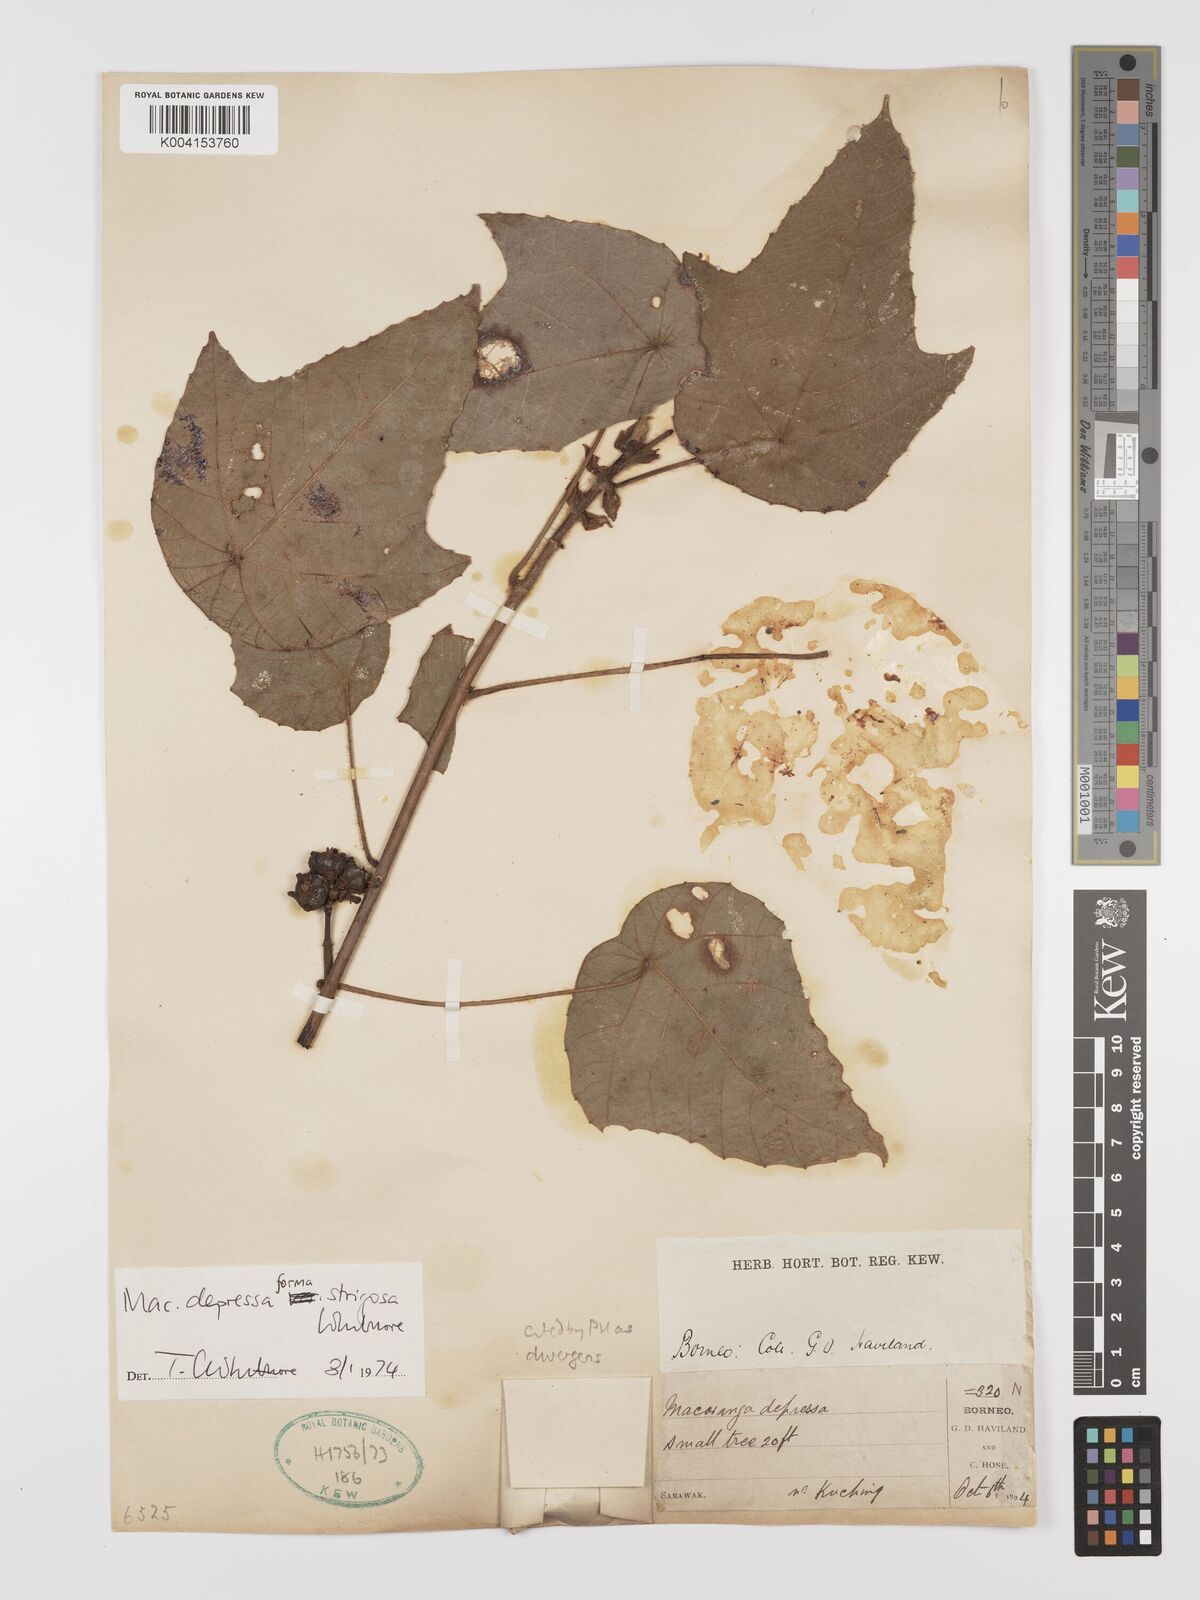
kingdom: Plantae
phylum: Tracheophyta
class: Magnoliopsida
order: Malpighiales
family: Euphorbiaceae
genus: Macaranga
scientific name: Macaranga depressa
